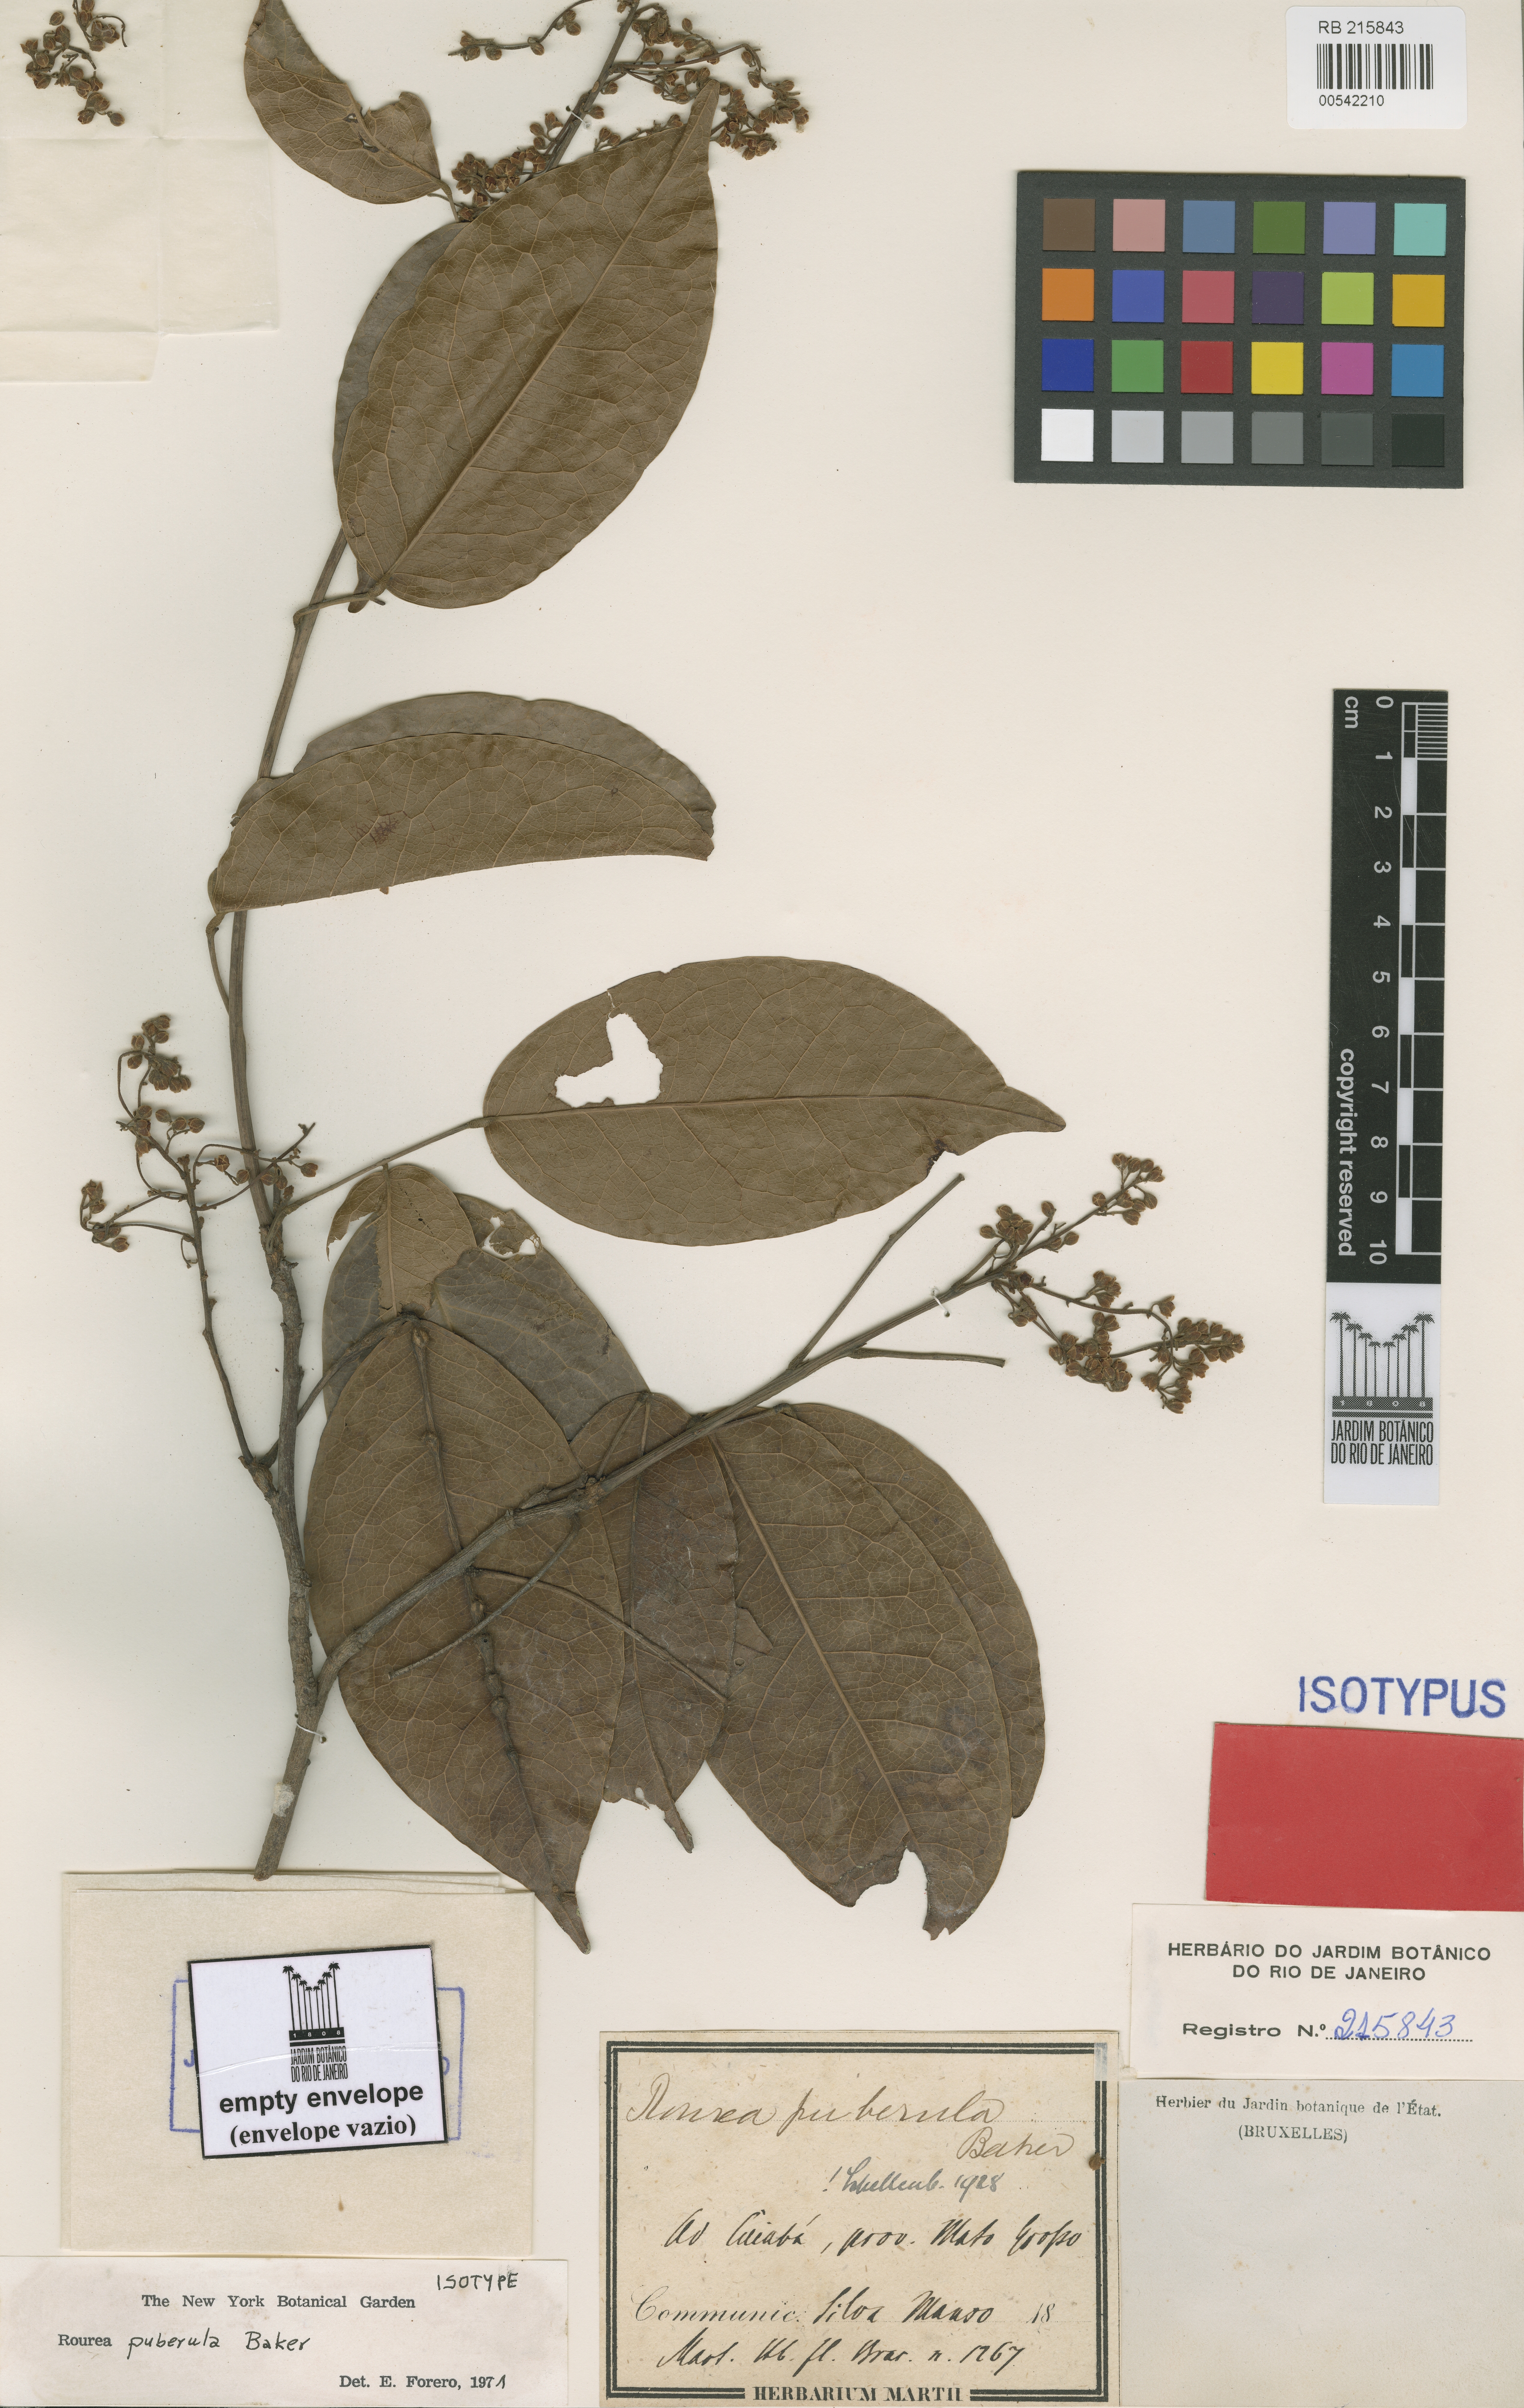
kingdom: Plantae
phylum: Tracheophyta
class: Magnoliopsida
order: Oxalidales
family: Connaraceae
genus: Rourea
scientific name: Rourea puberula
